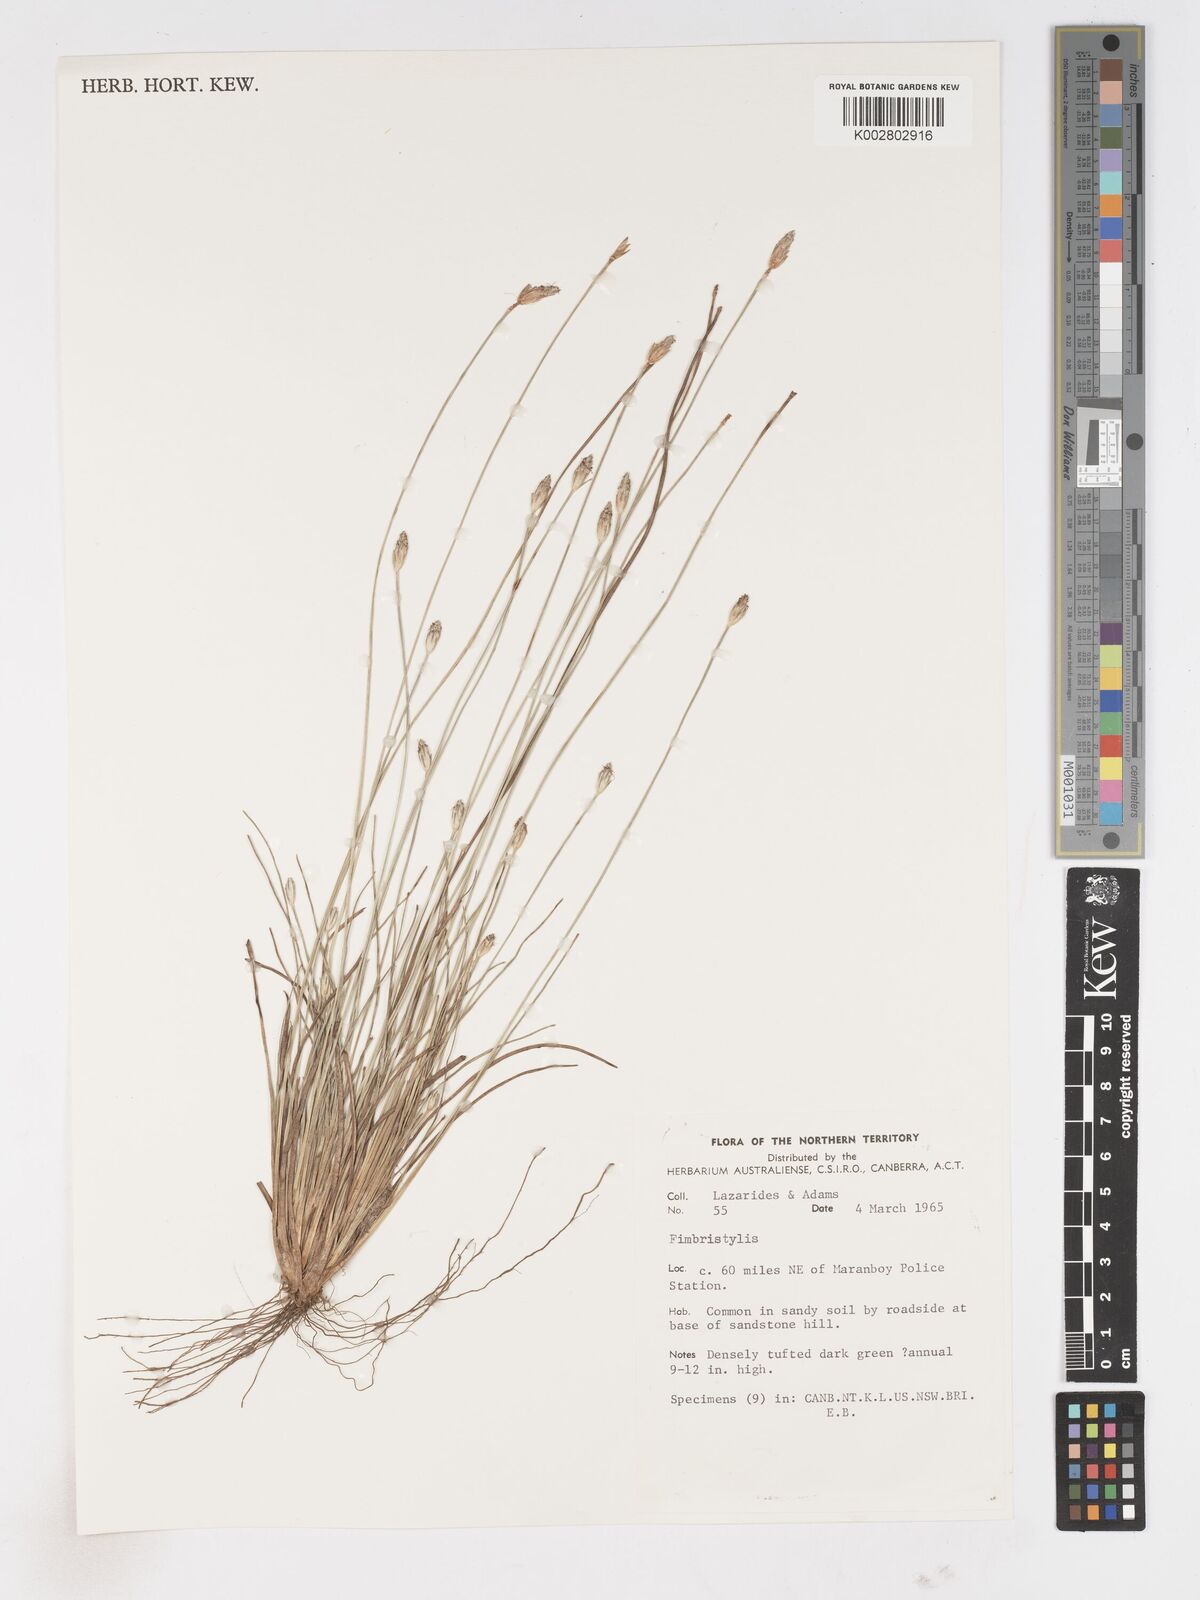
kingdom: Plantae
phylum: Tracheophyta
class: Liliopsida
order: Poales
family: Cyperaceae
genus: Fimbristylis
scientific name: Fimbristylis
